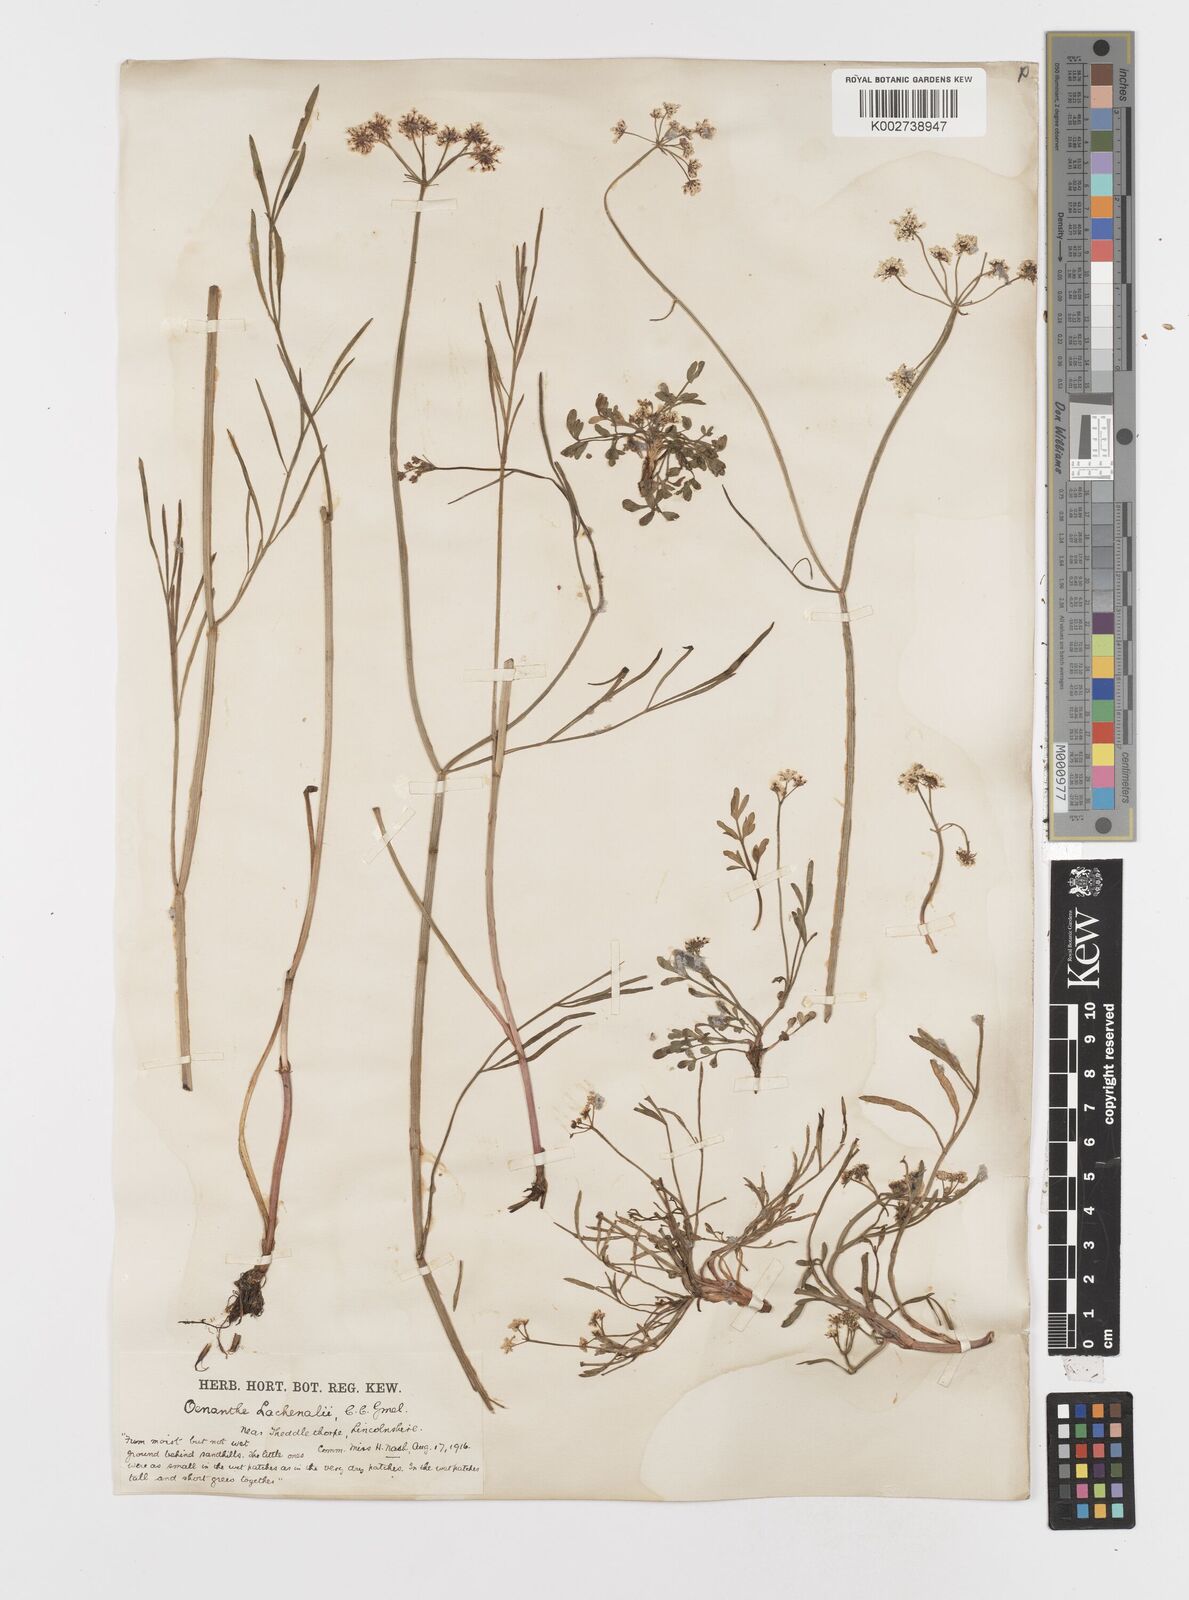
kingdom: Plantae
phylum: Tracheophyta
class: Magnoliopsida
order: Apiales
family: Apiaceae
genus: Oenanthe
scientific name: Oenanthe lachenalii
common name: Parsley water-dropwort
